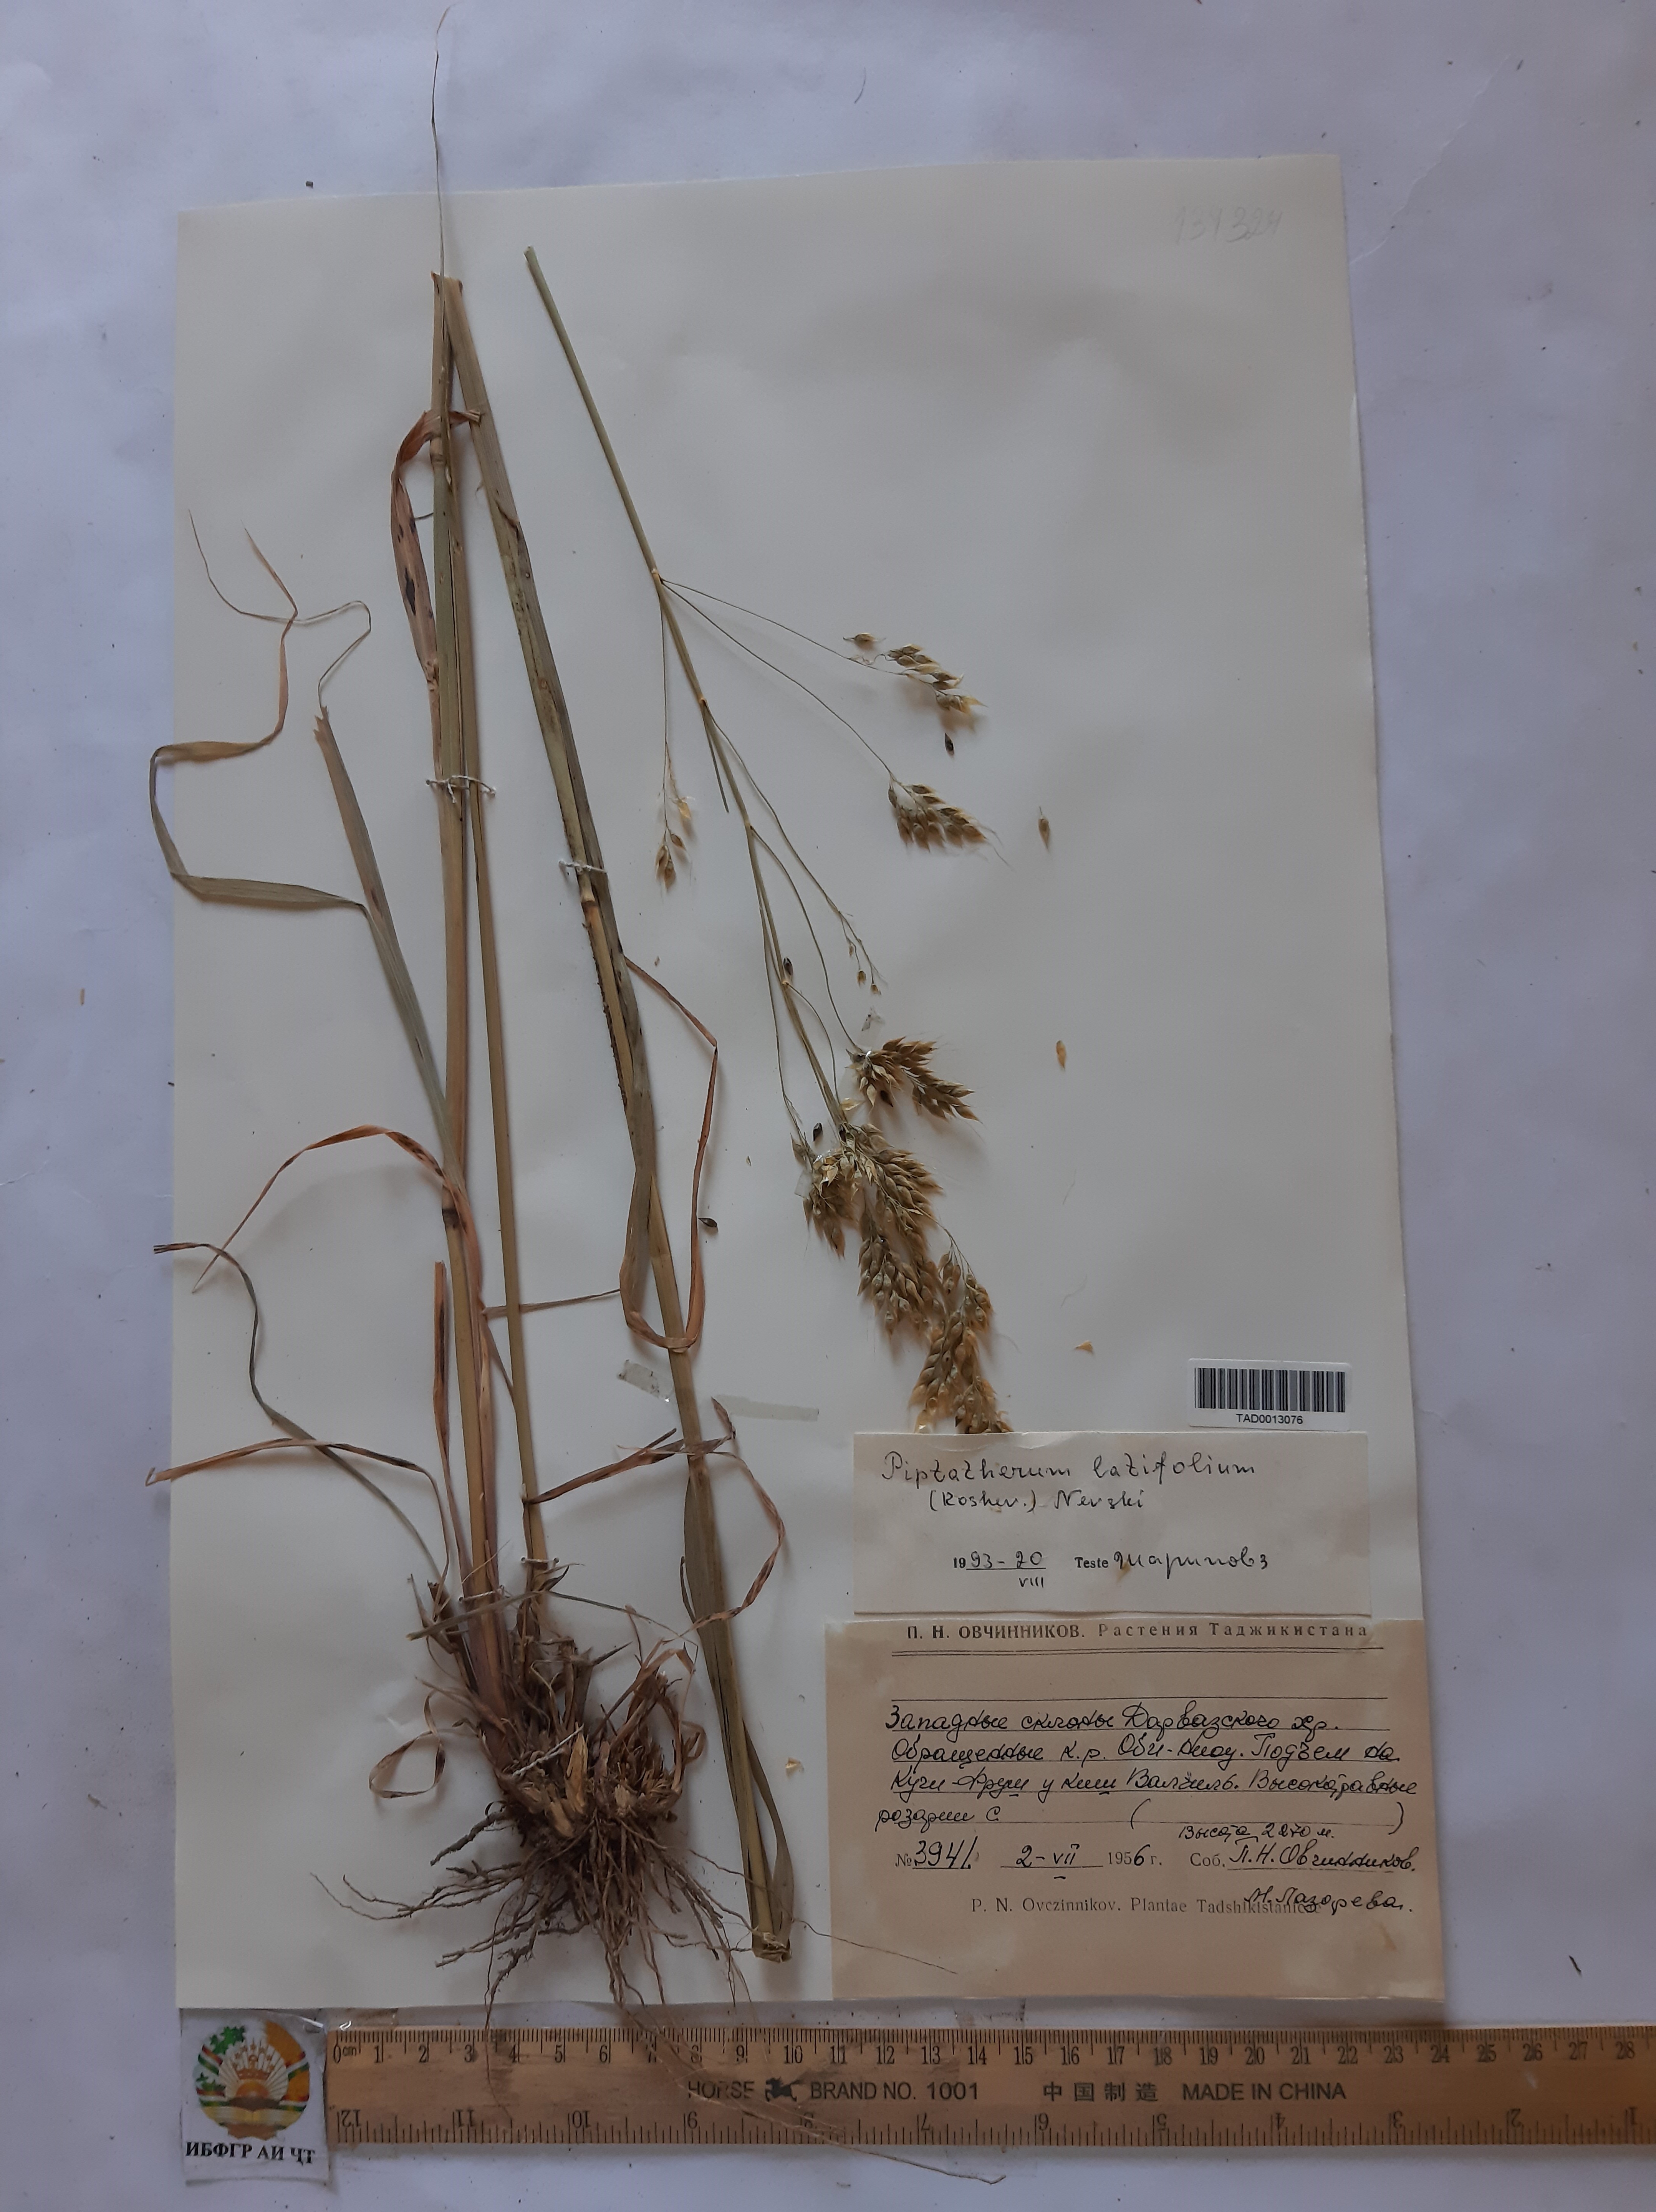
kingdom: Plantae
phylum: Tracheophyta
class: Liliopsida
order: Poales
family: Poaceae
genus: Piptatherum
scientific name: Piptatherum laterale
